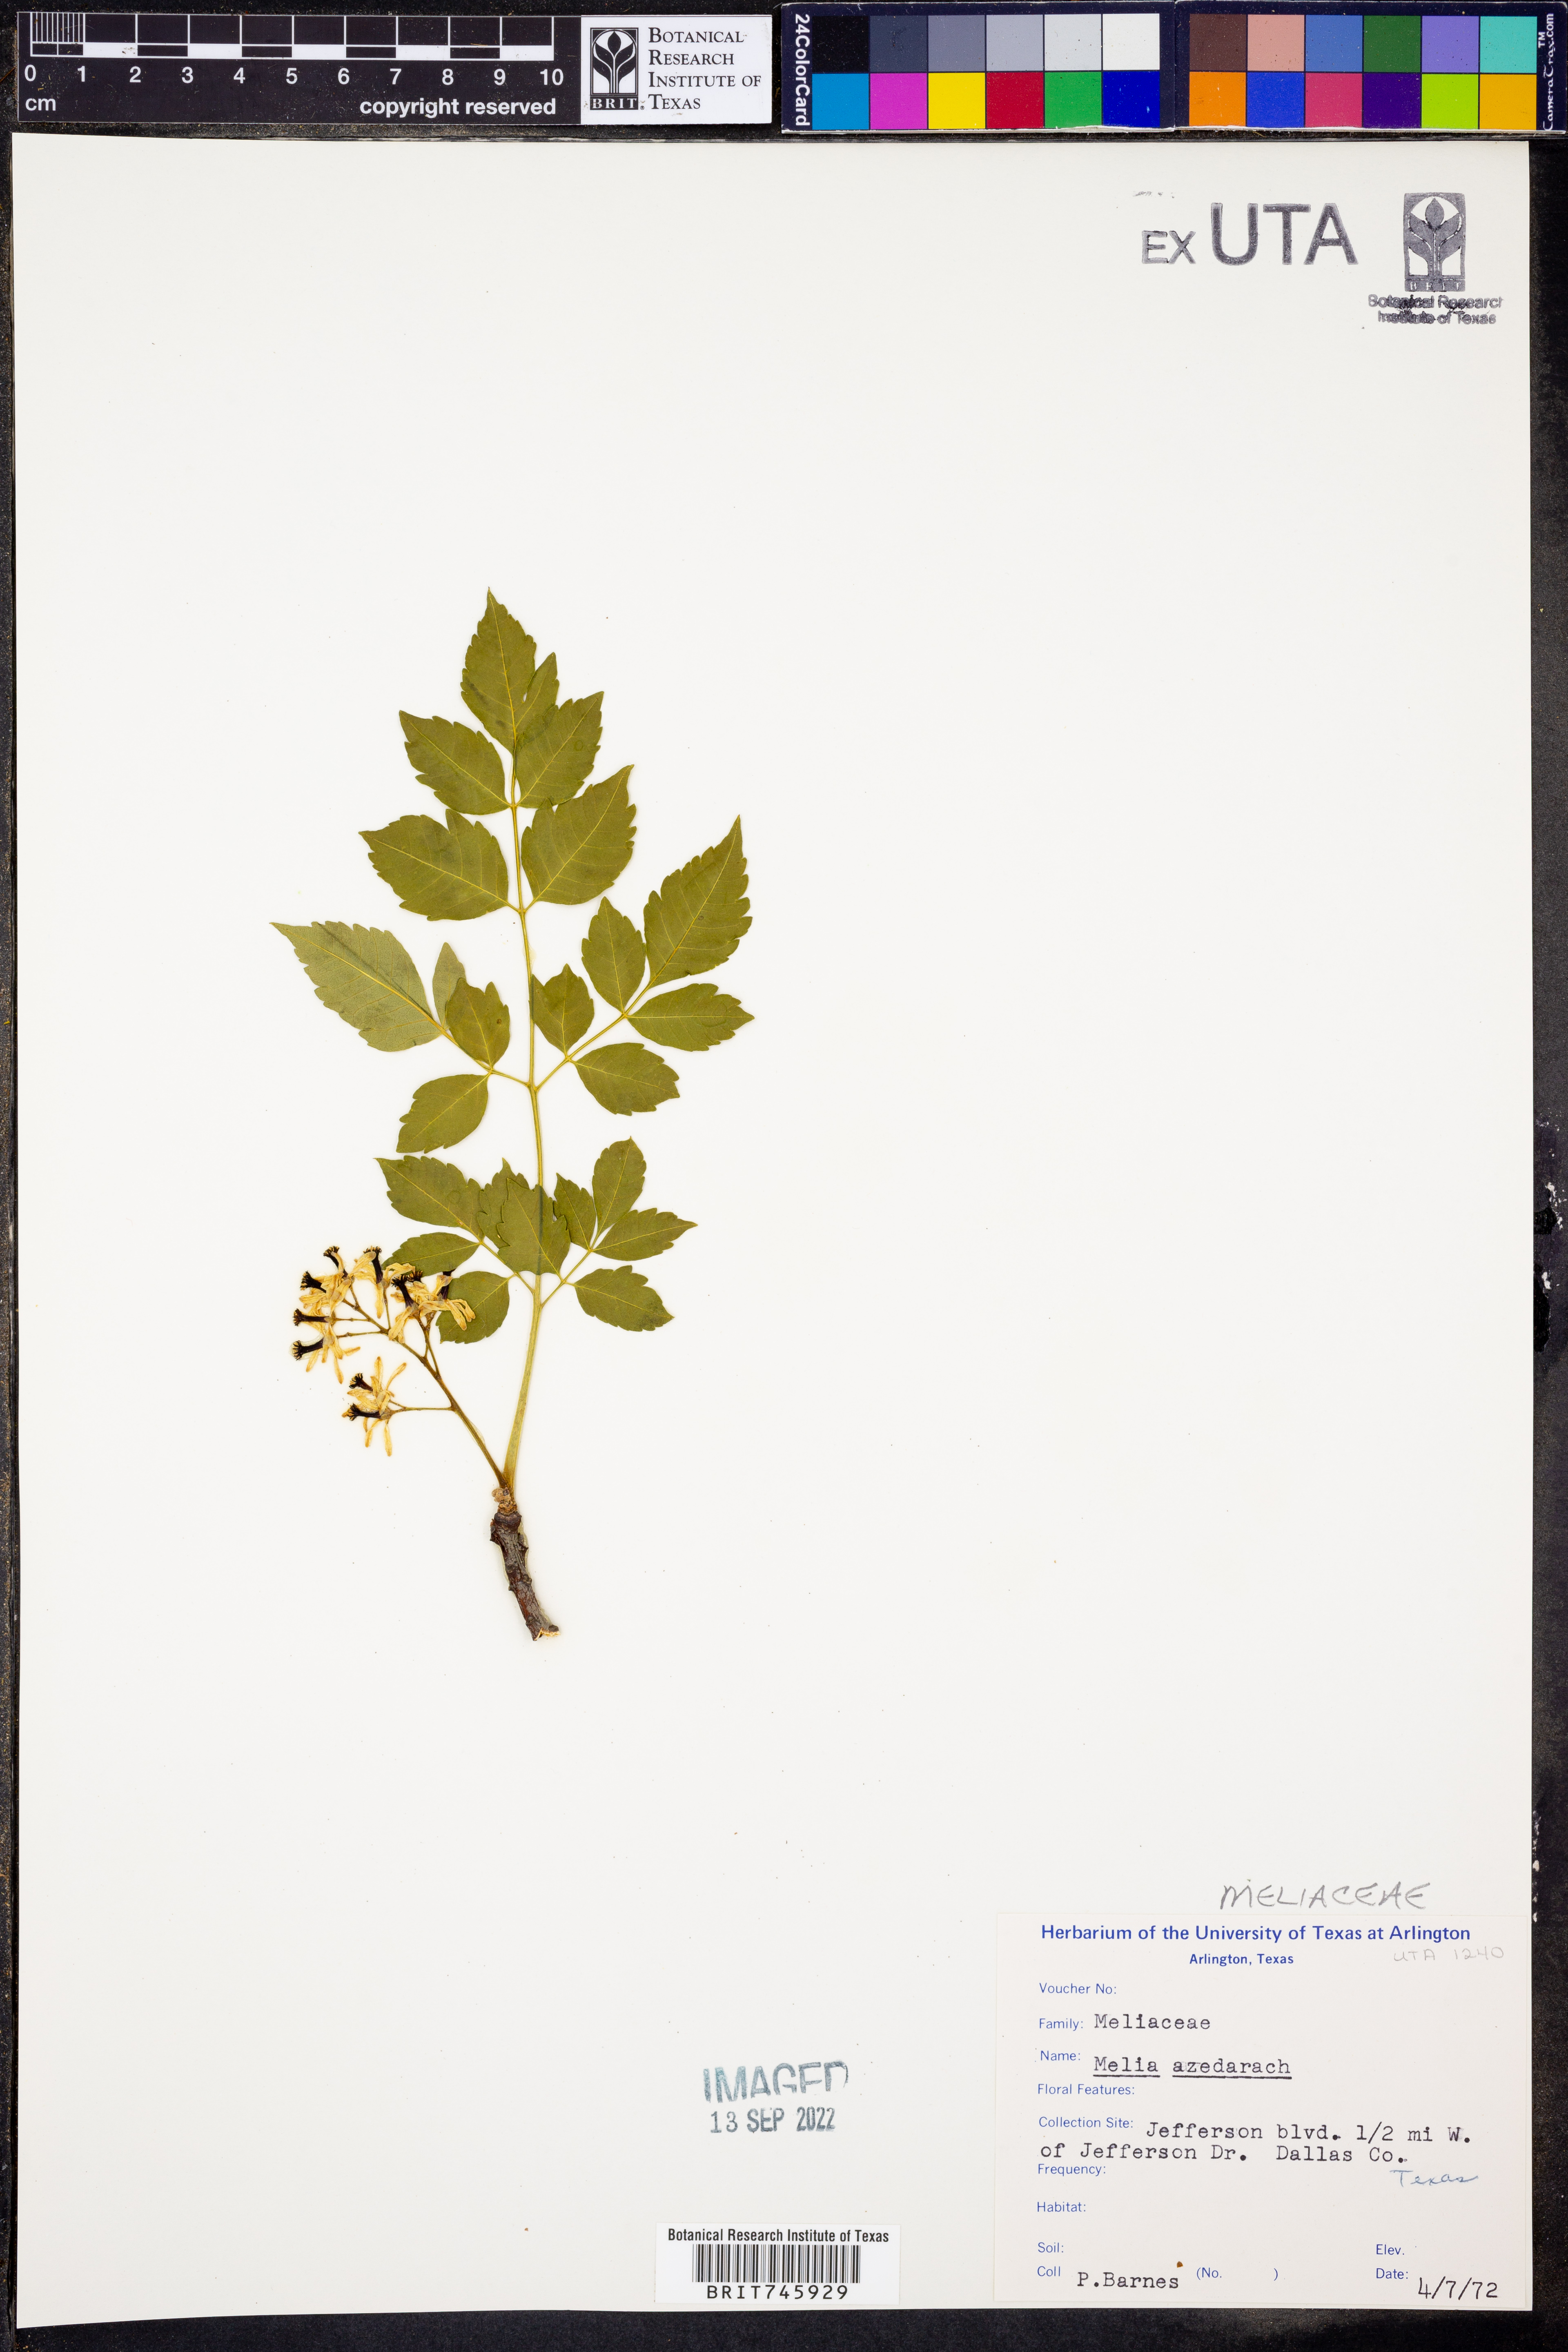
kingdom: Plantae
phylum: Tracheophyta
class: Magnoliopsida
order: Sapindales
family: Meliaceae
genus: Melia
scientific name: Melia azedarach
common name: Chinaberrytree
